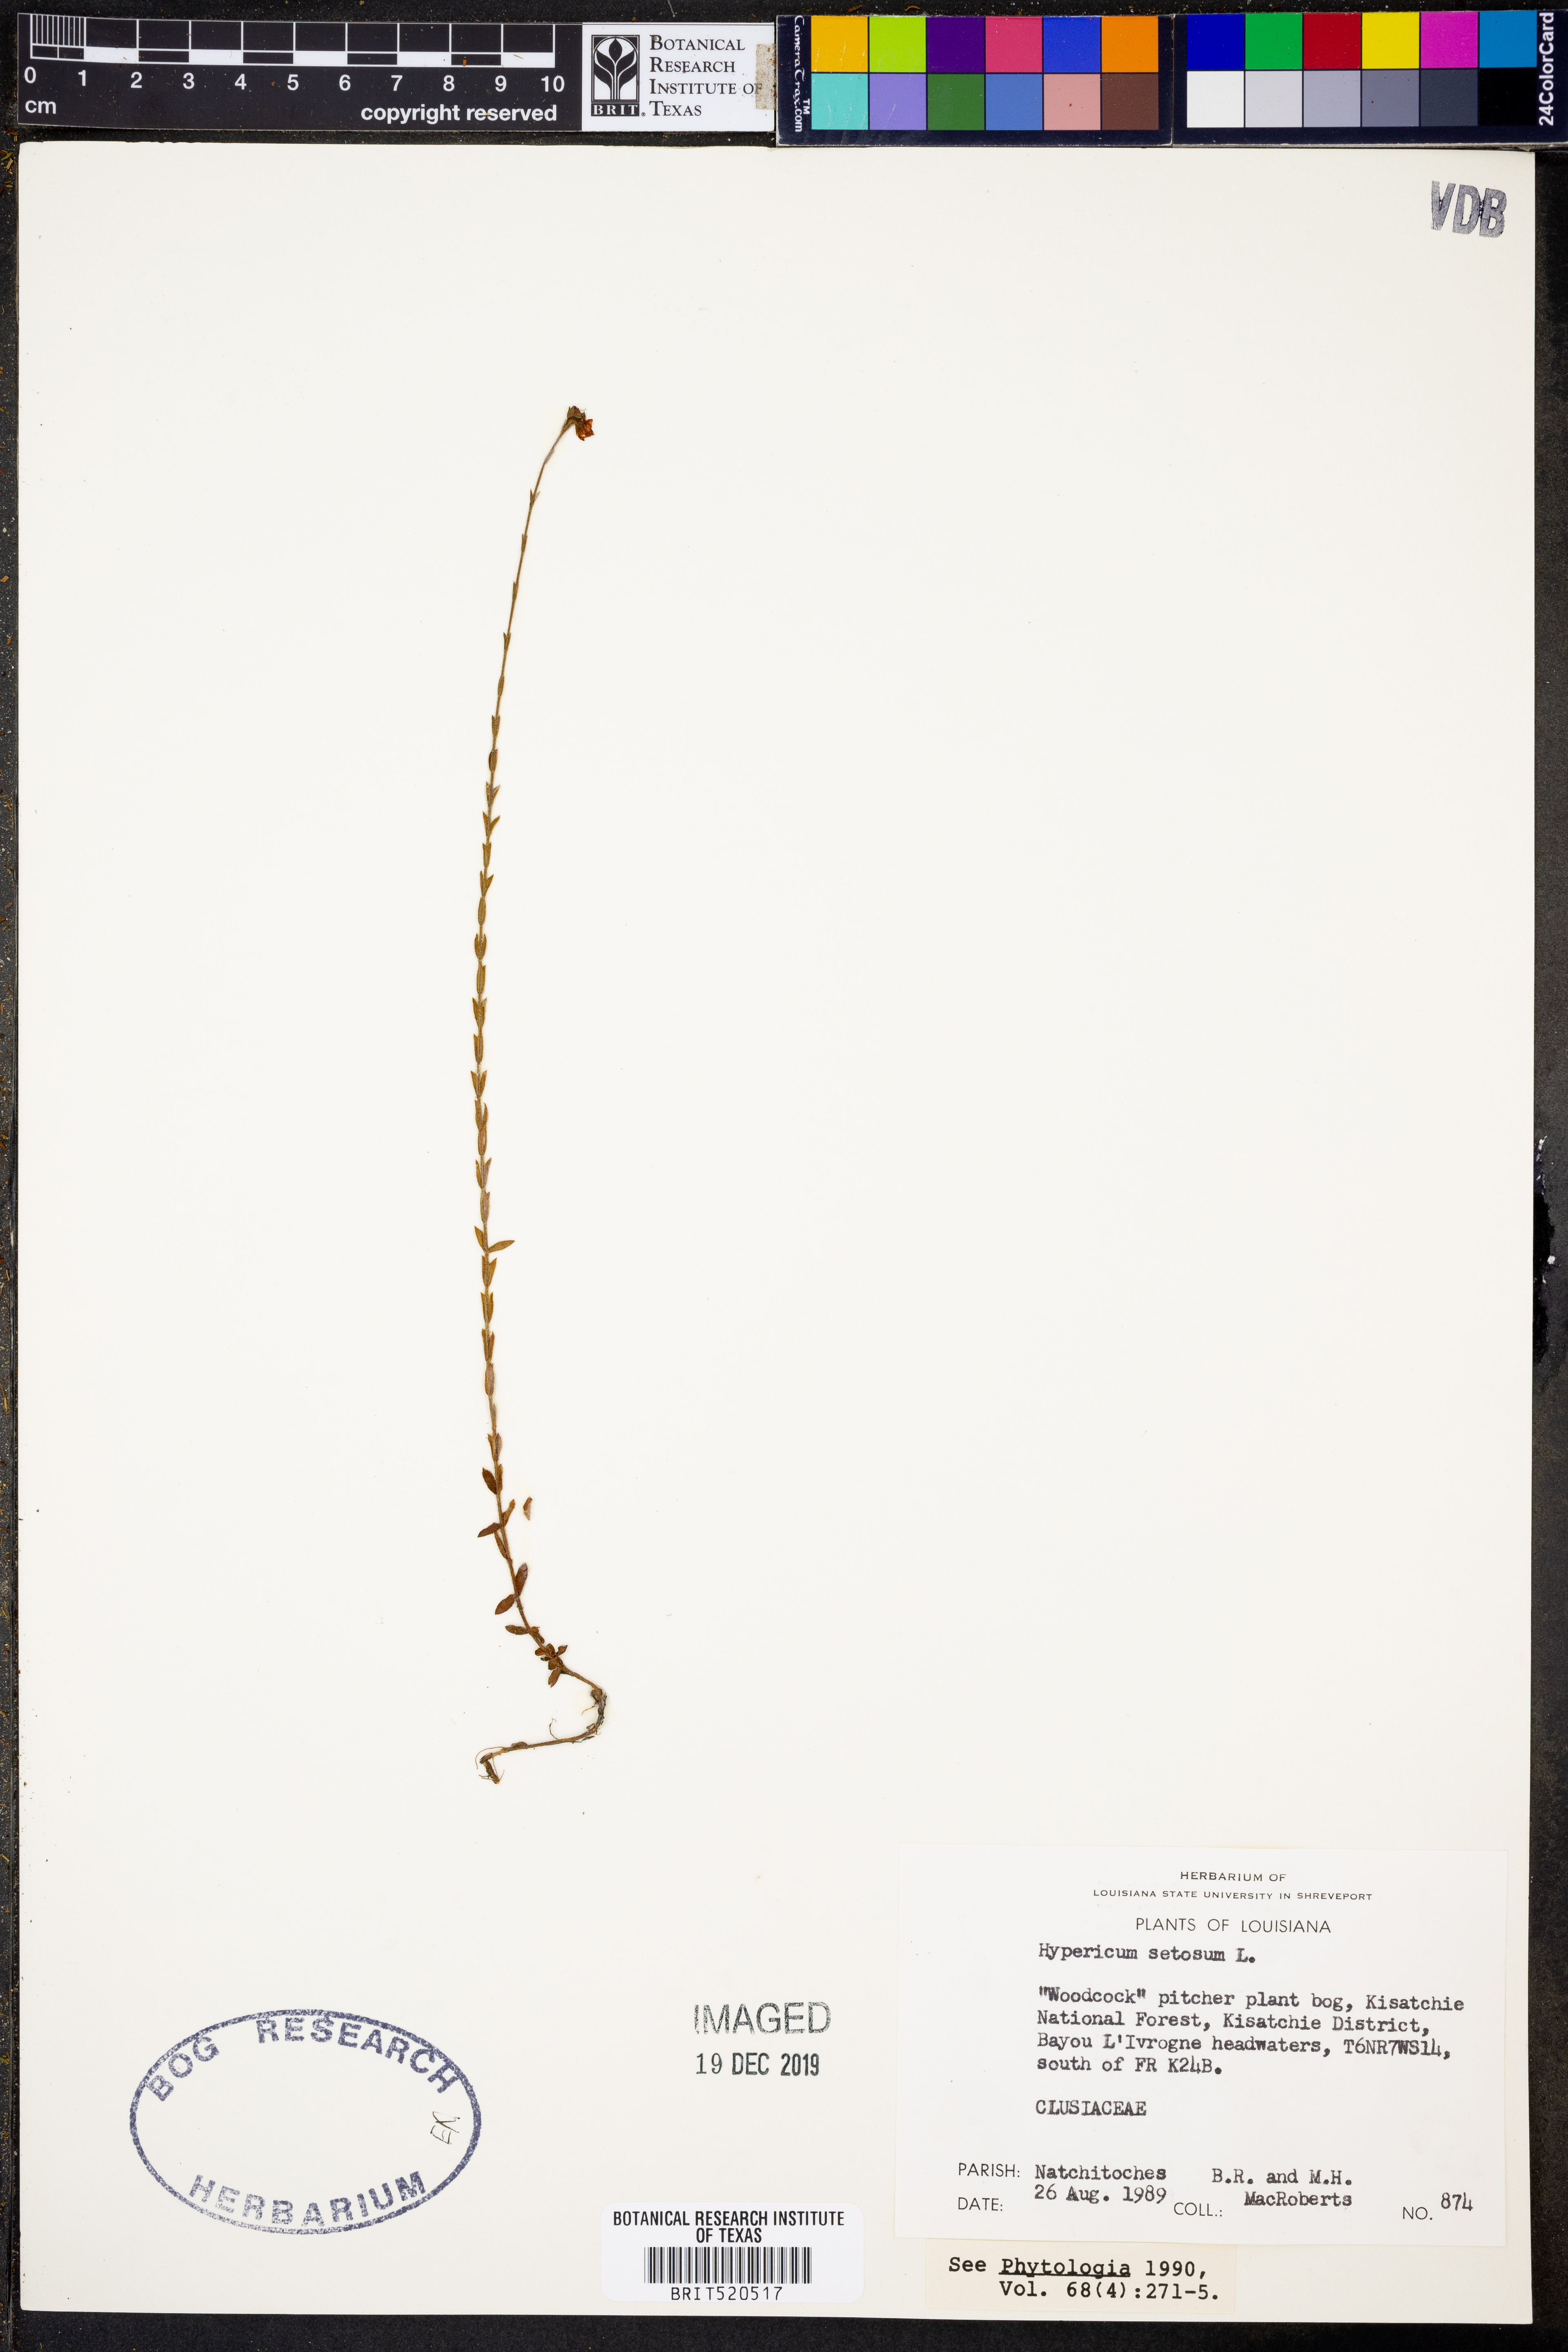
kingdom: Plantae
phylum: Tracheophyta
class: Magnoliopsida
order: Malpighiales
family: Hypericaceae
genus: Hypericum
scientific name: Hypericum setosum
